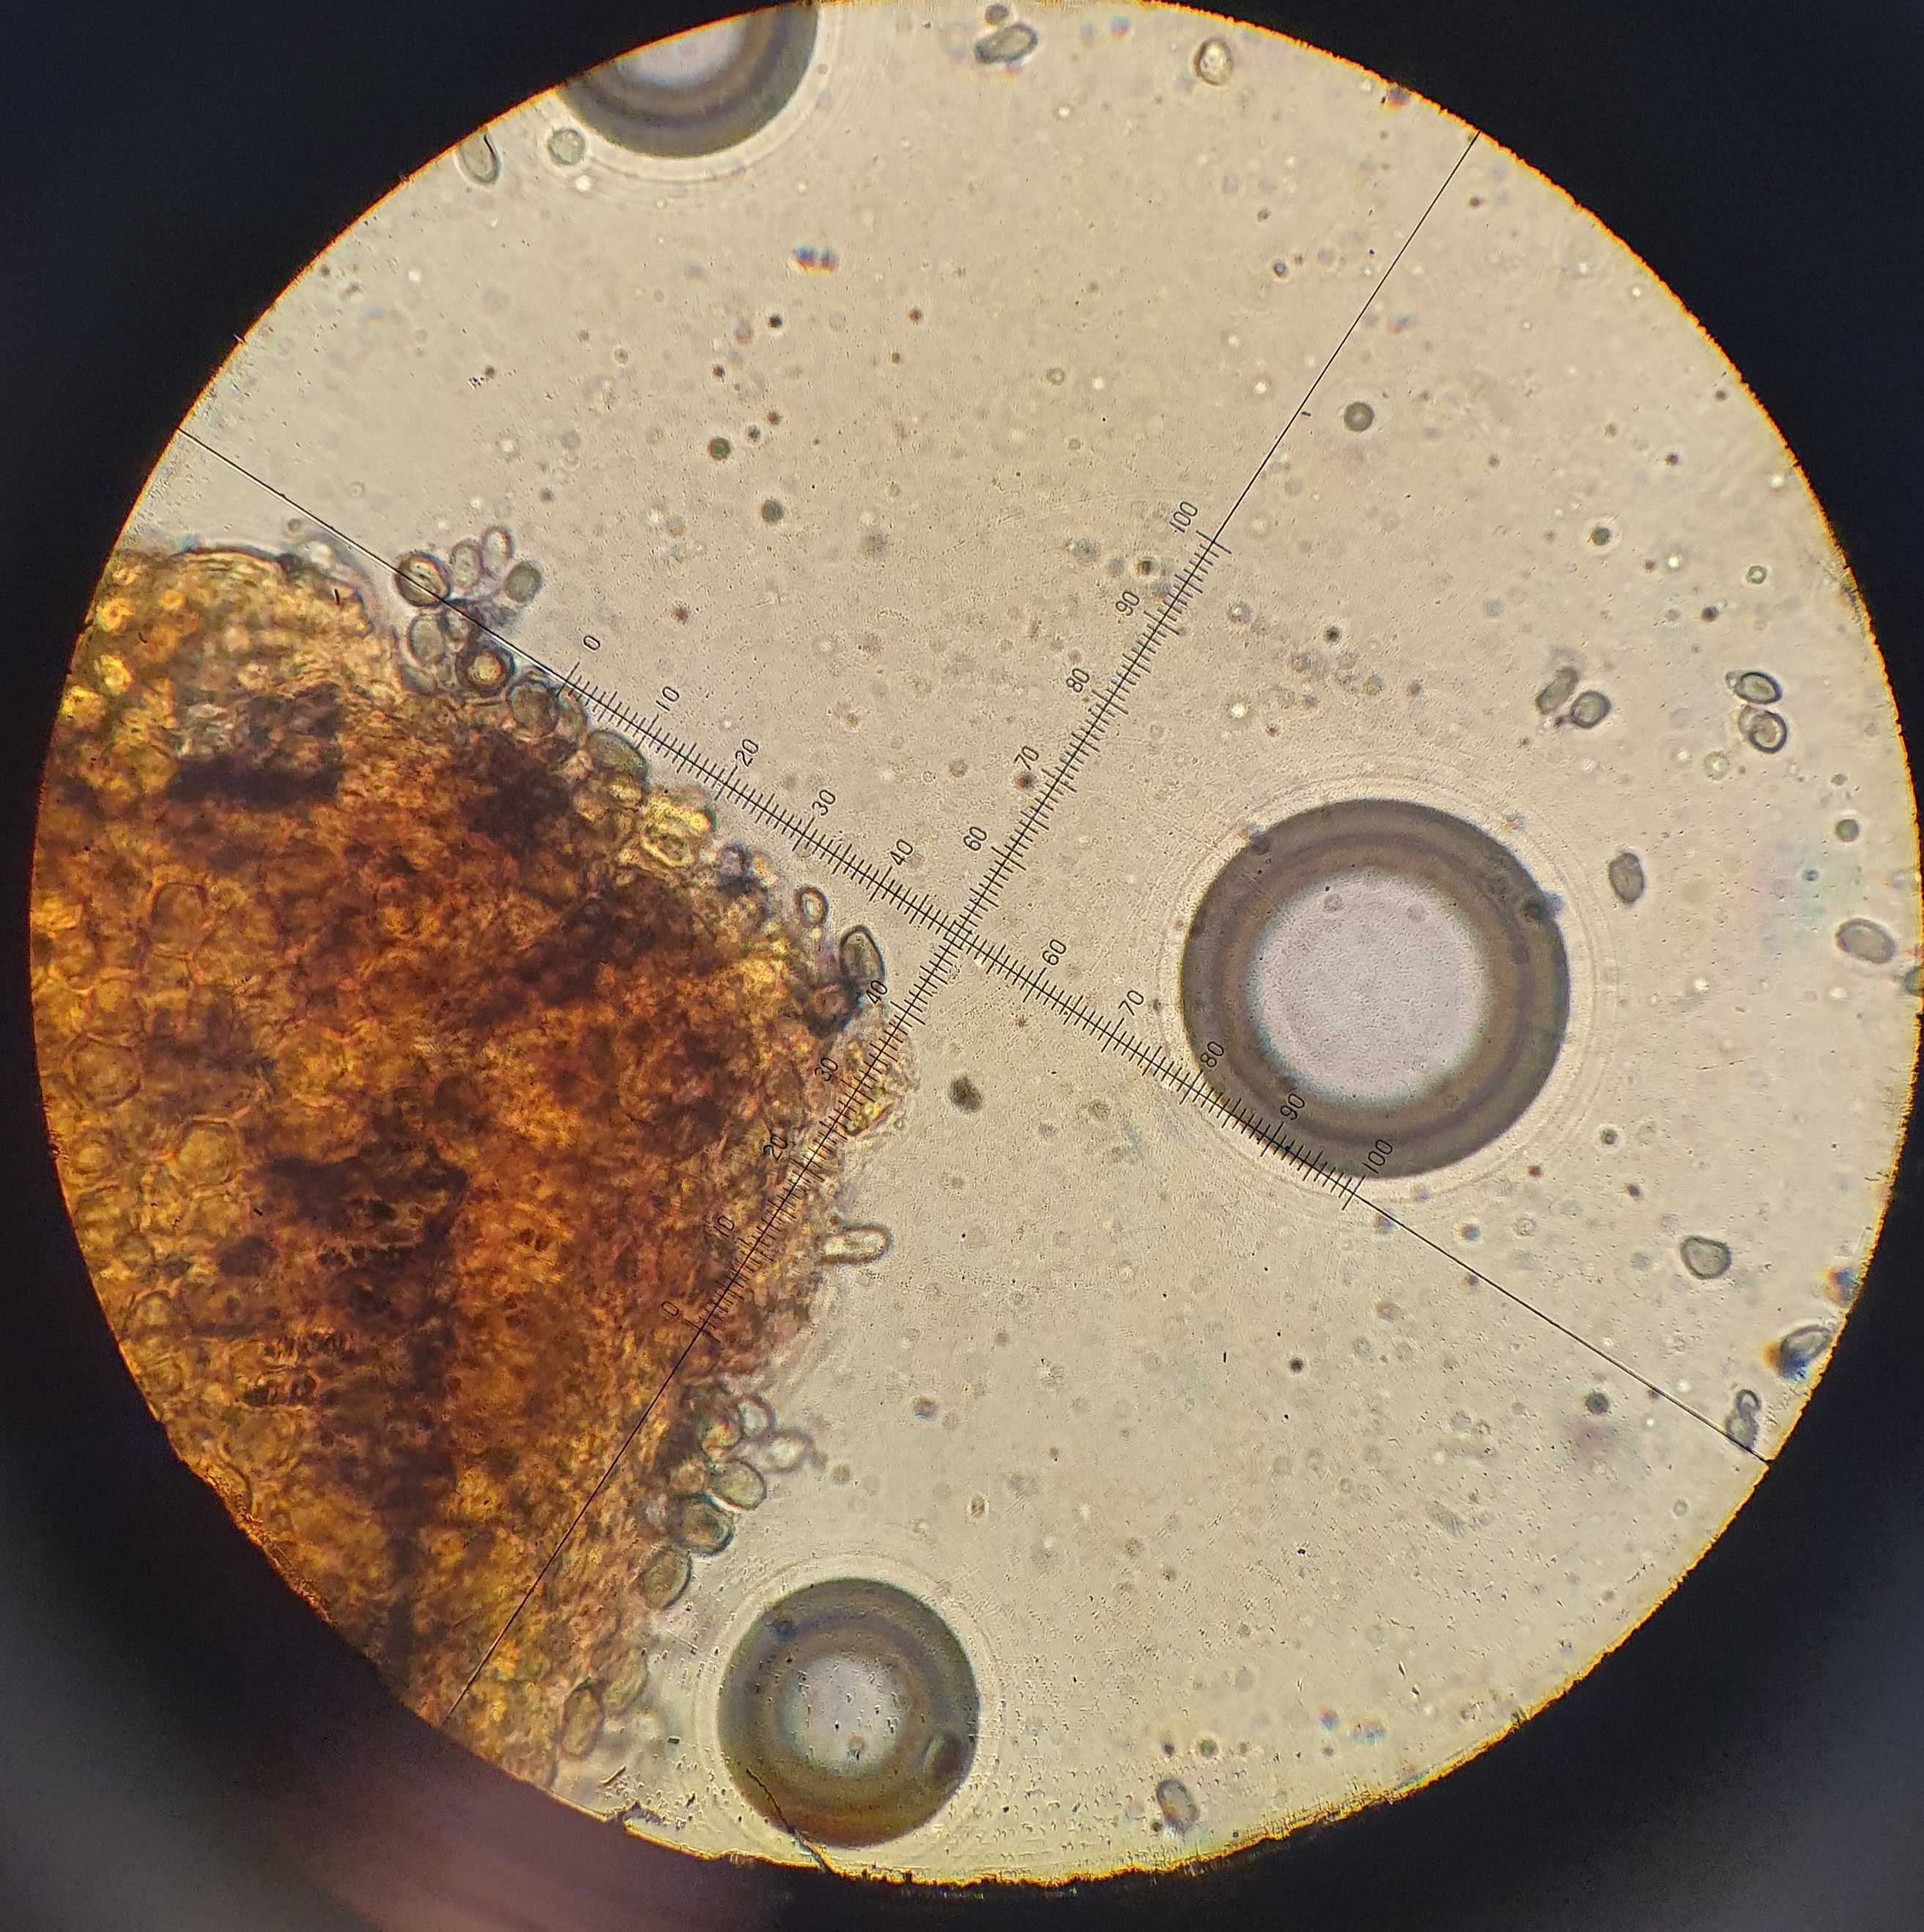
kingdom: Fungi
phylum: Basidiomycota
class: Agaricomycetes
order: Agaricales
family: Mycenaceae
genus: Mycena
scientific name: Mycena flavescens
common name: grågul huesvamp
